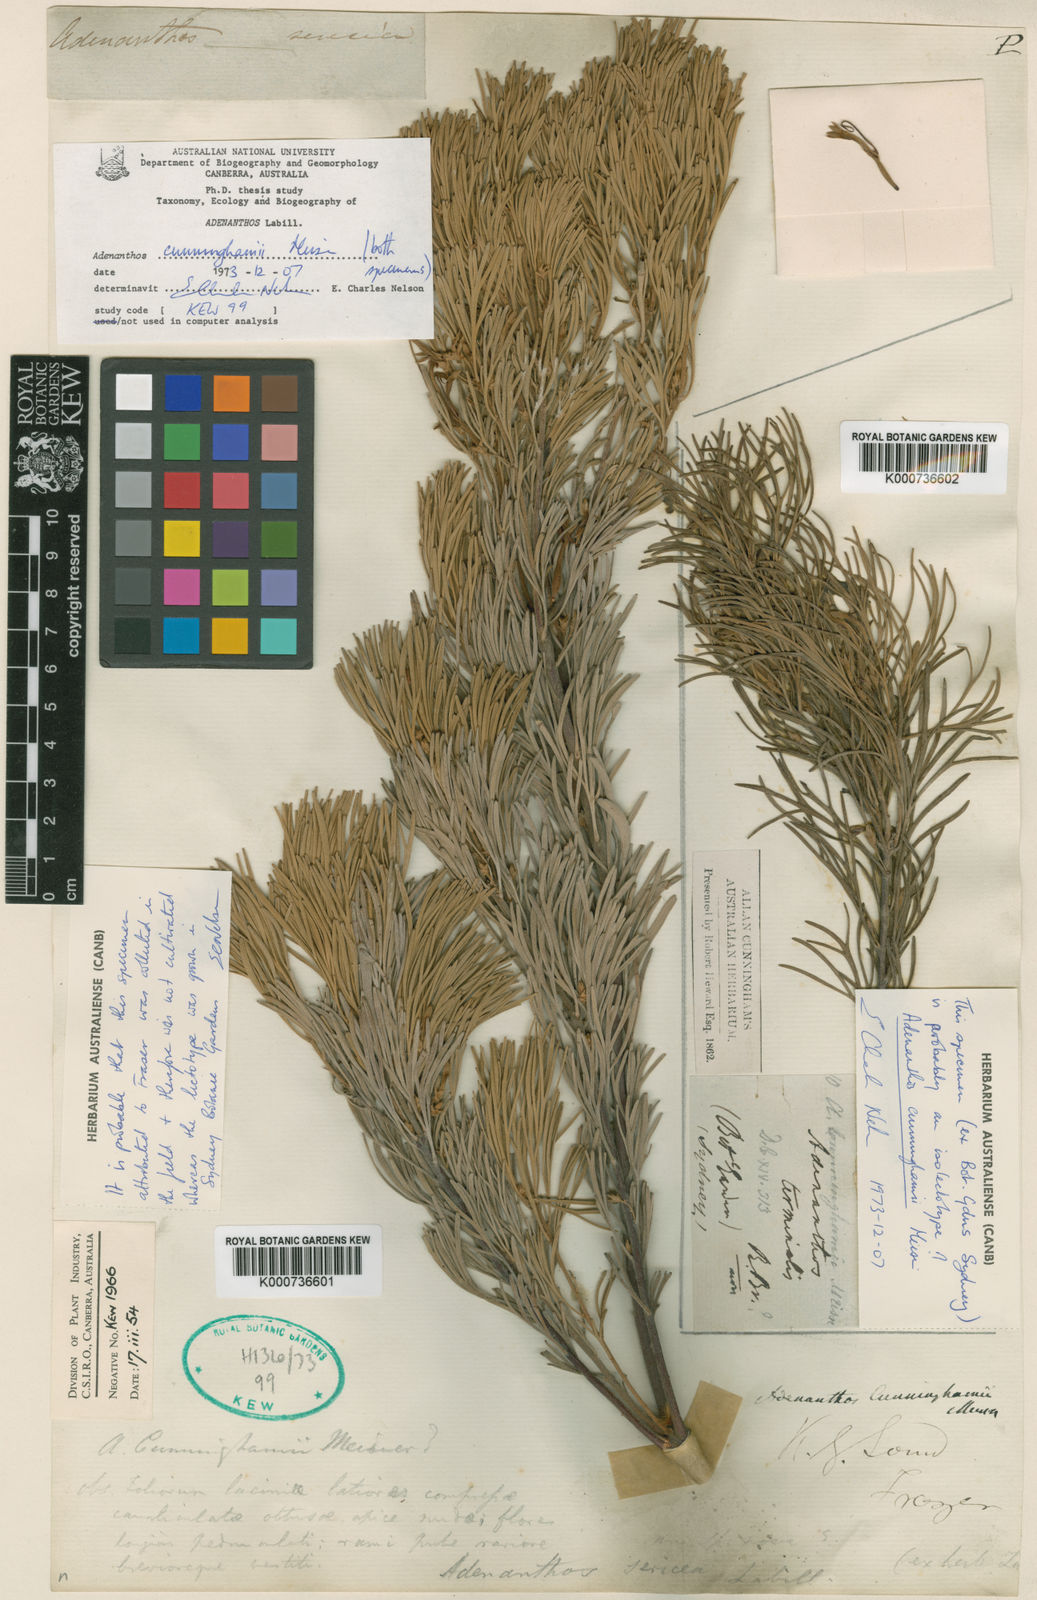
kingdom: Plantae
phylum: Tracheophyta
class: Magnoliopsida
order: Proteales
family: Proteaceae
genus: Adenanthos
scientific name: Adenanthos cunninghamii
